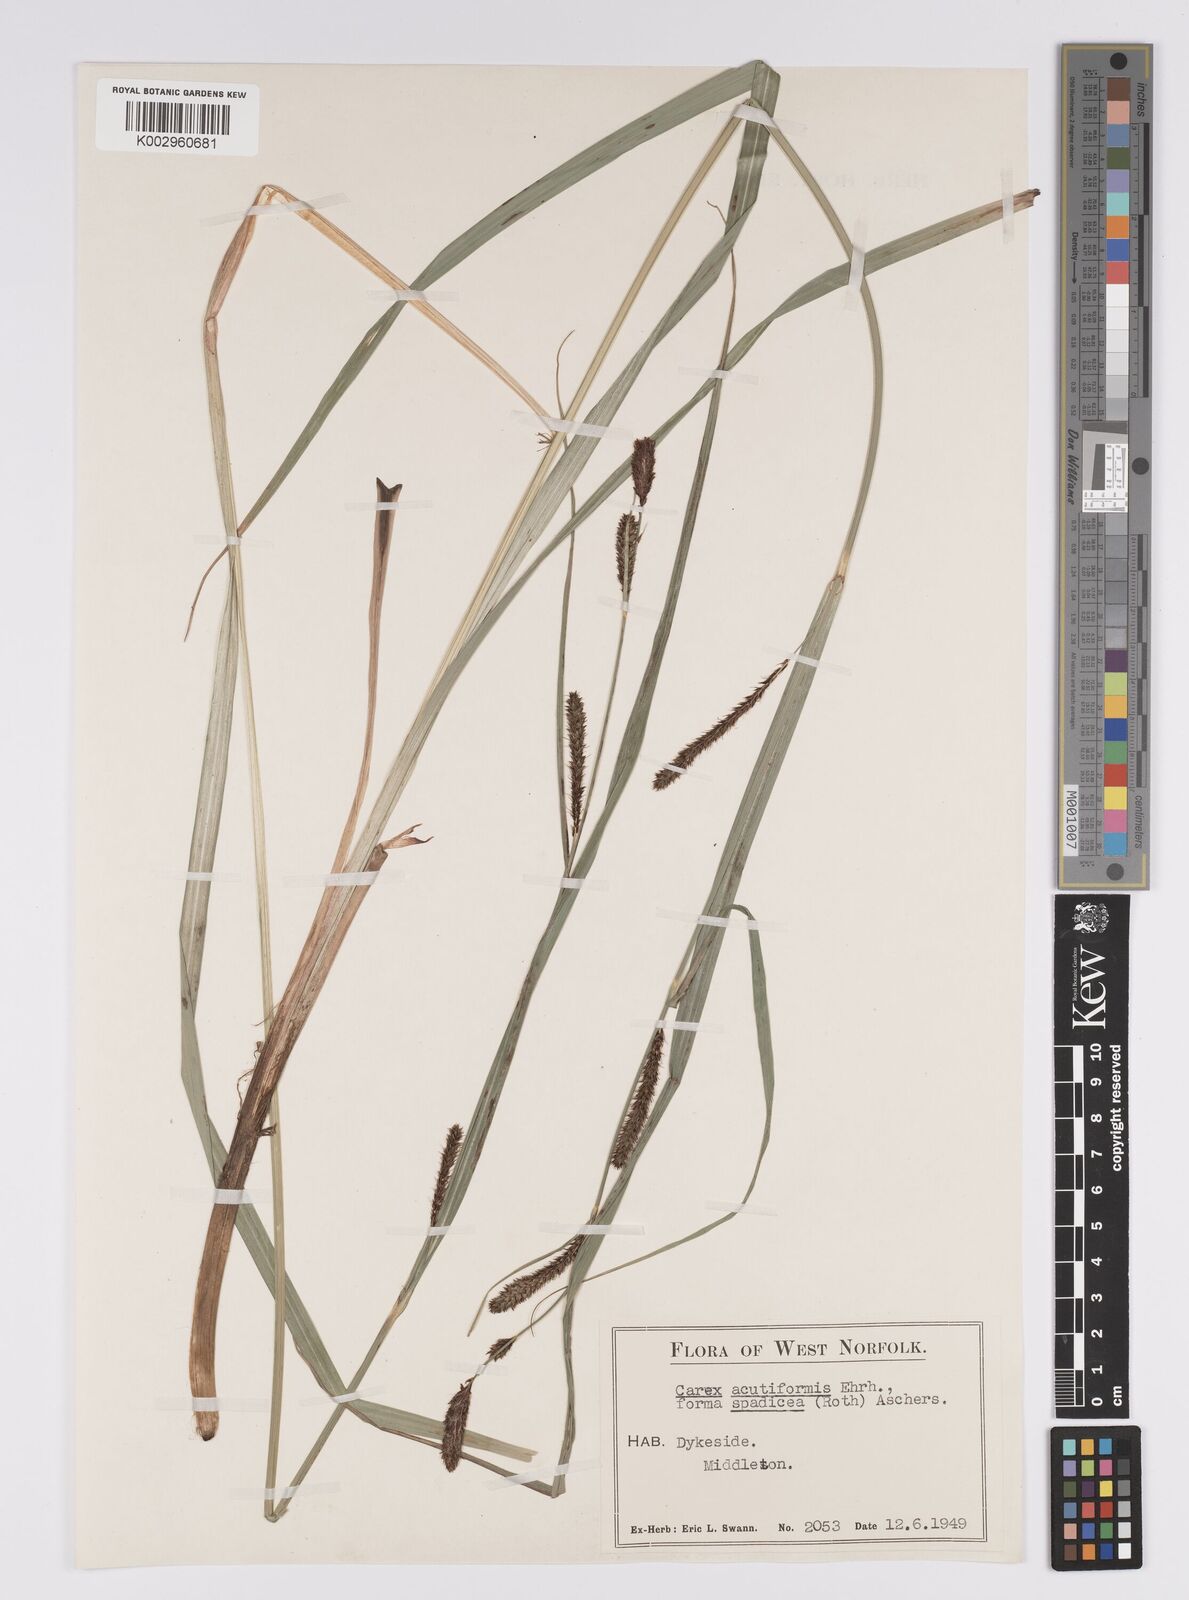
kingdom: Plantae
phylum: Tracheophyta
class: Liliopsida
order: Poales
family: Cyperaceae
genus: Carex
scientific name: Carex acutiformis
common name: Lesser pond-sedge
